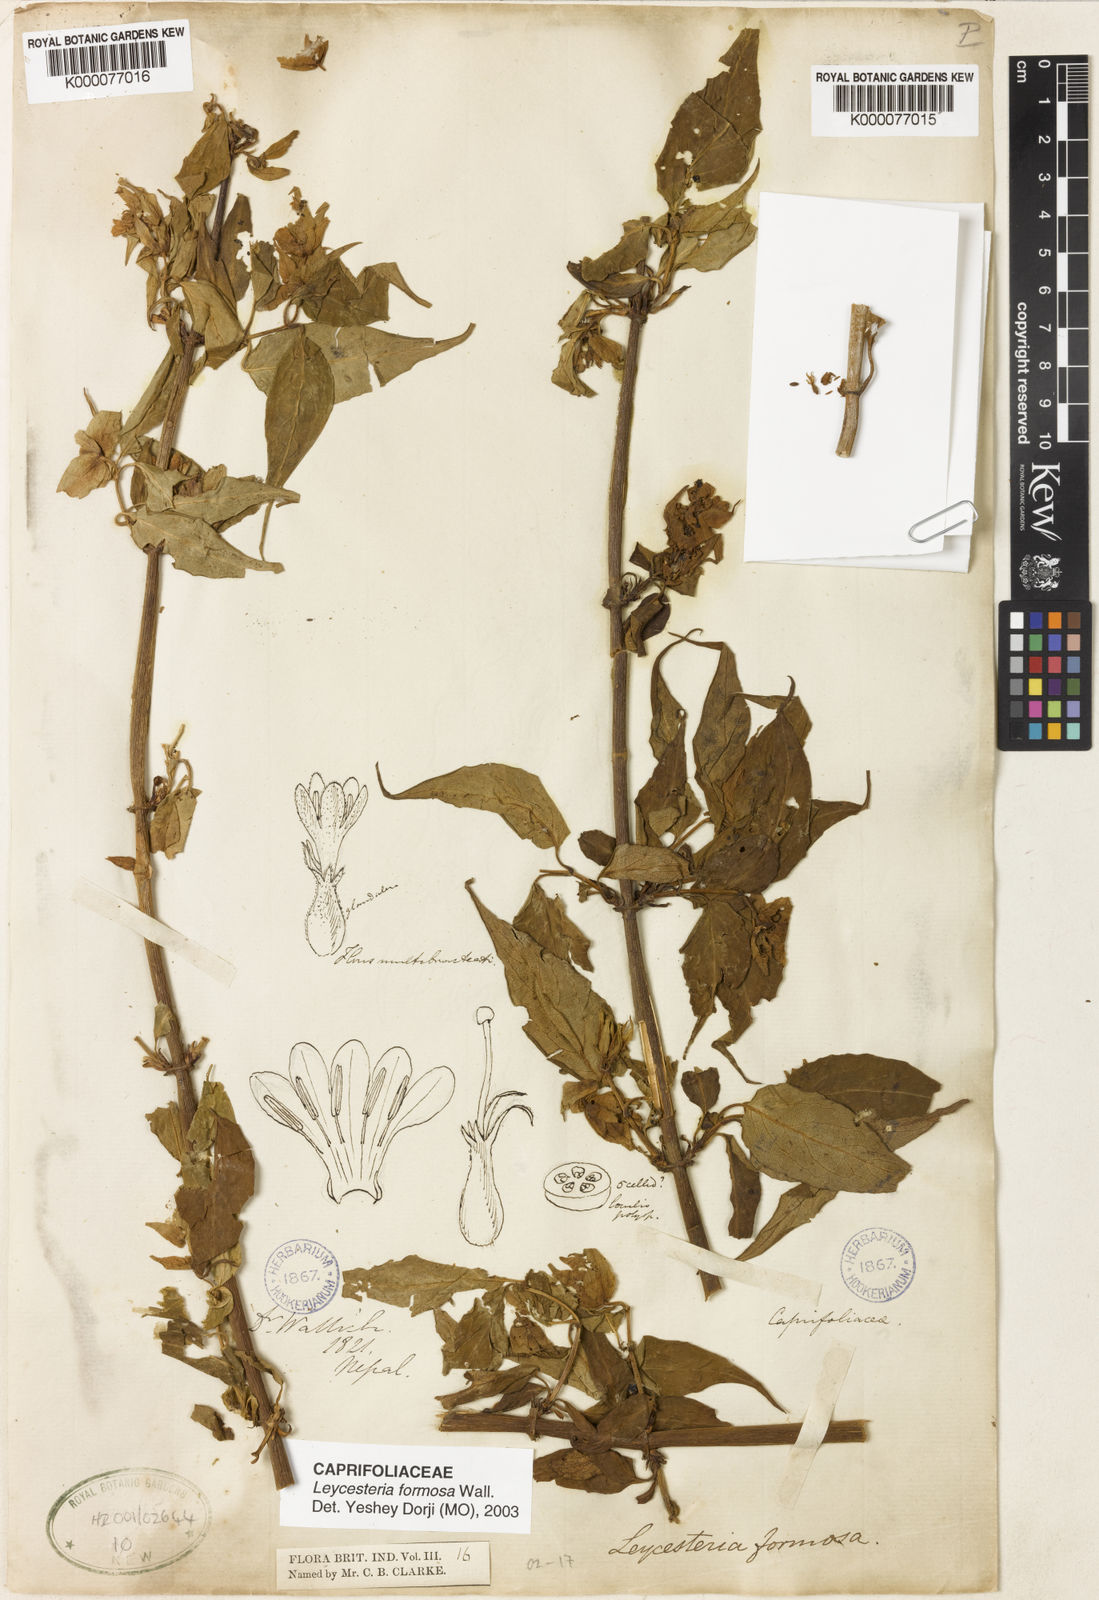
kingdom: Plantae
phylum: Tracheophyta
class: Magnoliopsida
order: Dipsacales
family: Caprifoliaceae
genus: Leycesteria
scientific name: Leycesteria formosa
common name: Himalayan honeysuckle
